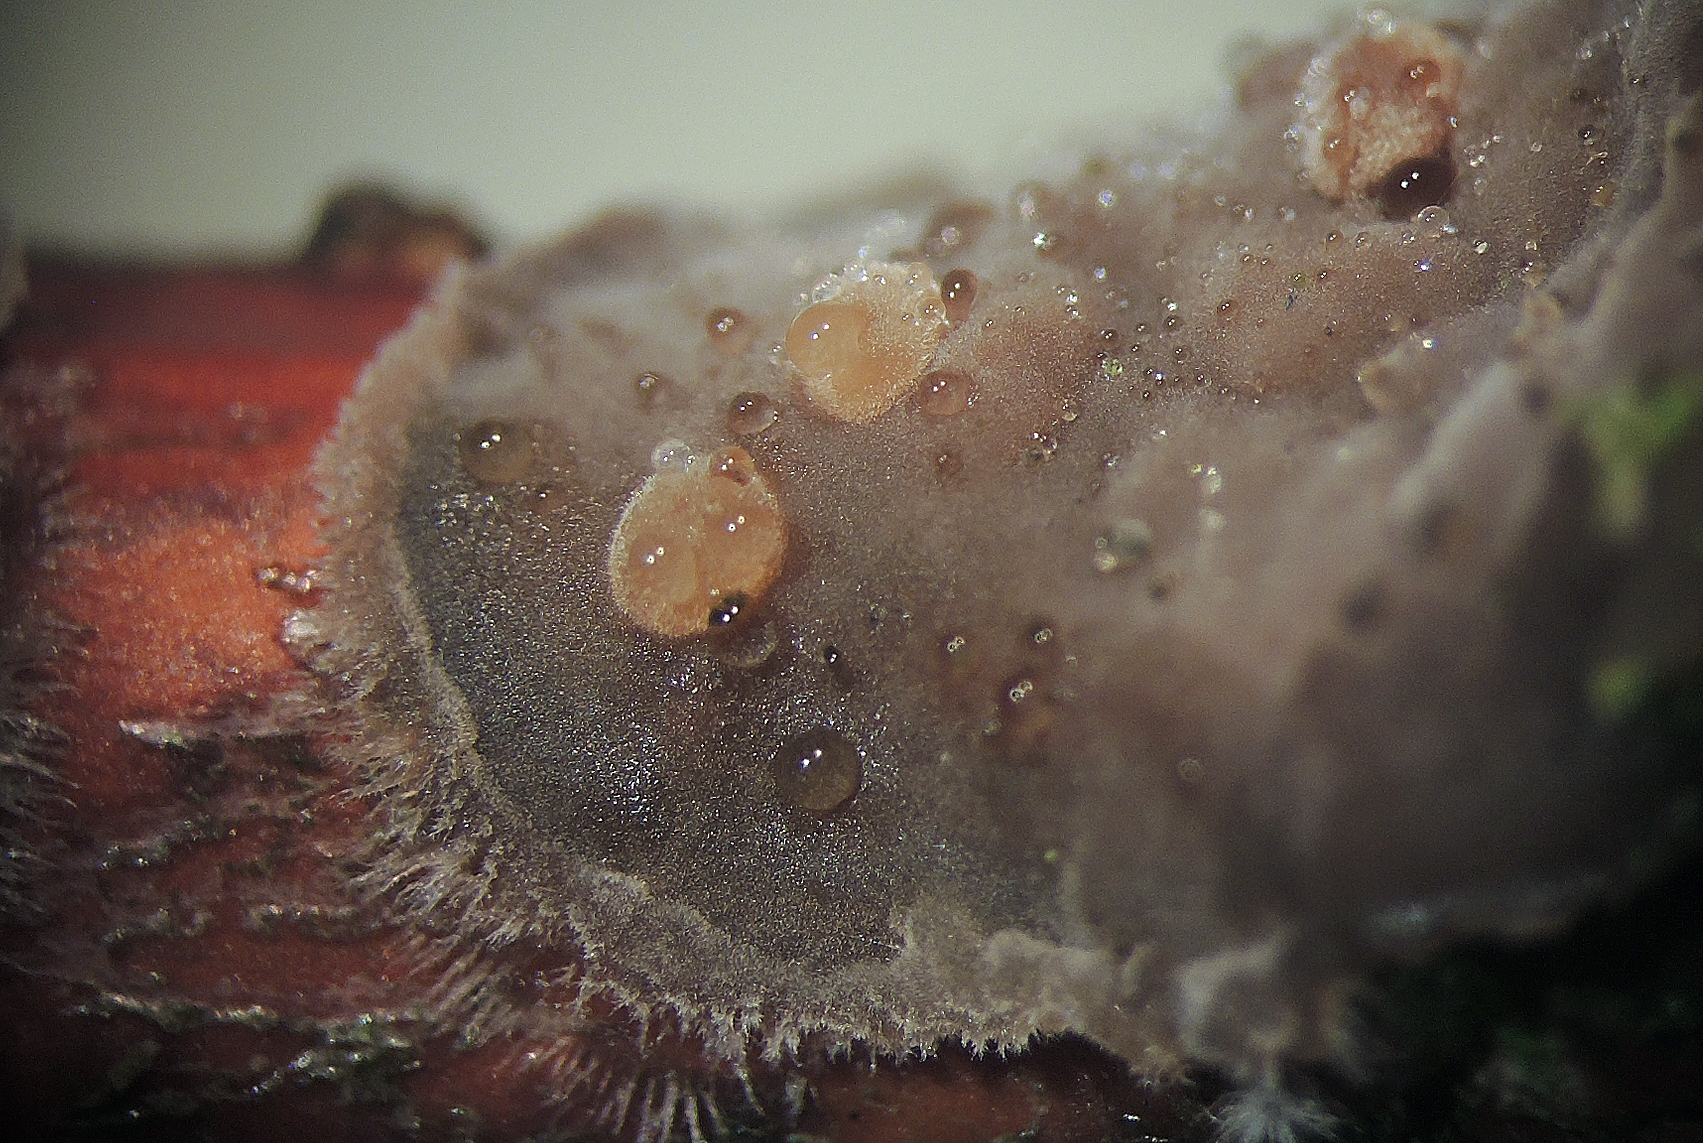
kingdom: Fungi
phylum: Basidiomycota
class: Pucciniomycetes
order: Platygloeales
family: Platygloeaceae
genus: Platygloea
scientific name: Platygloea
